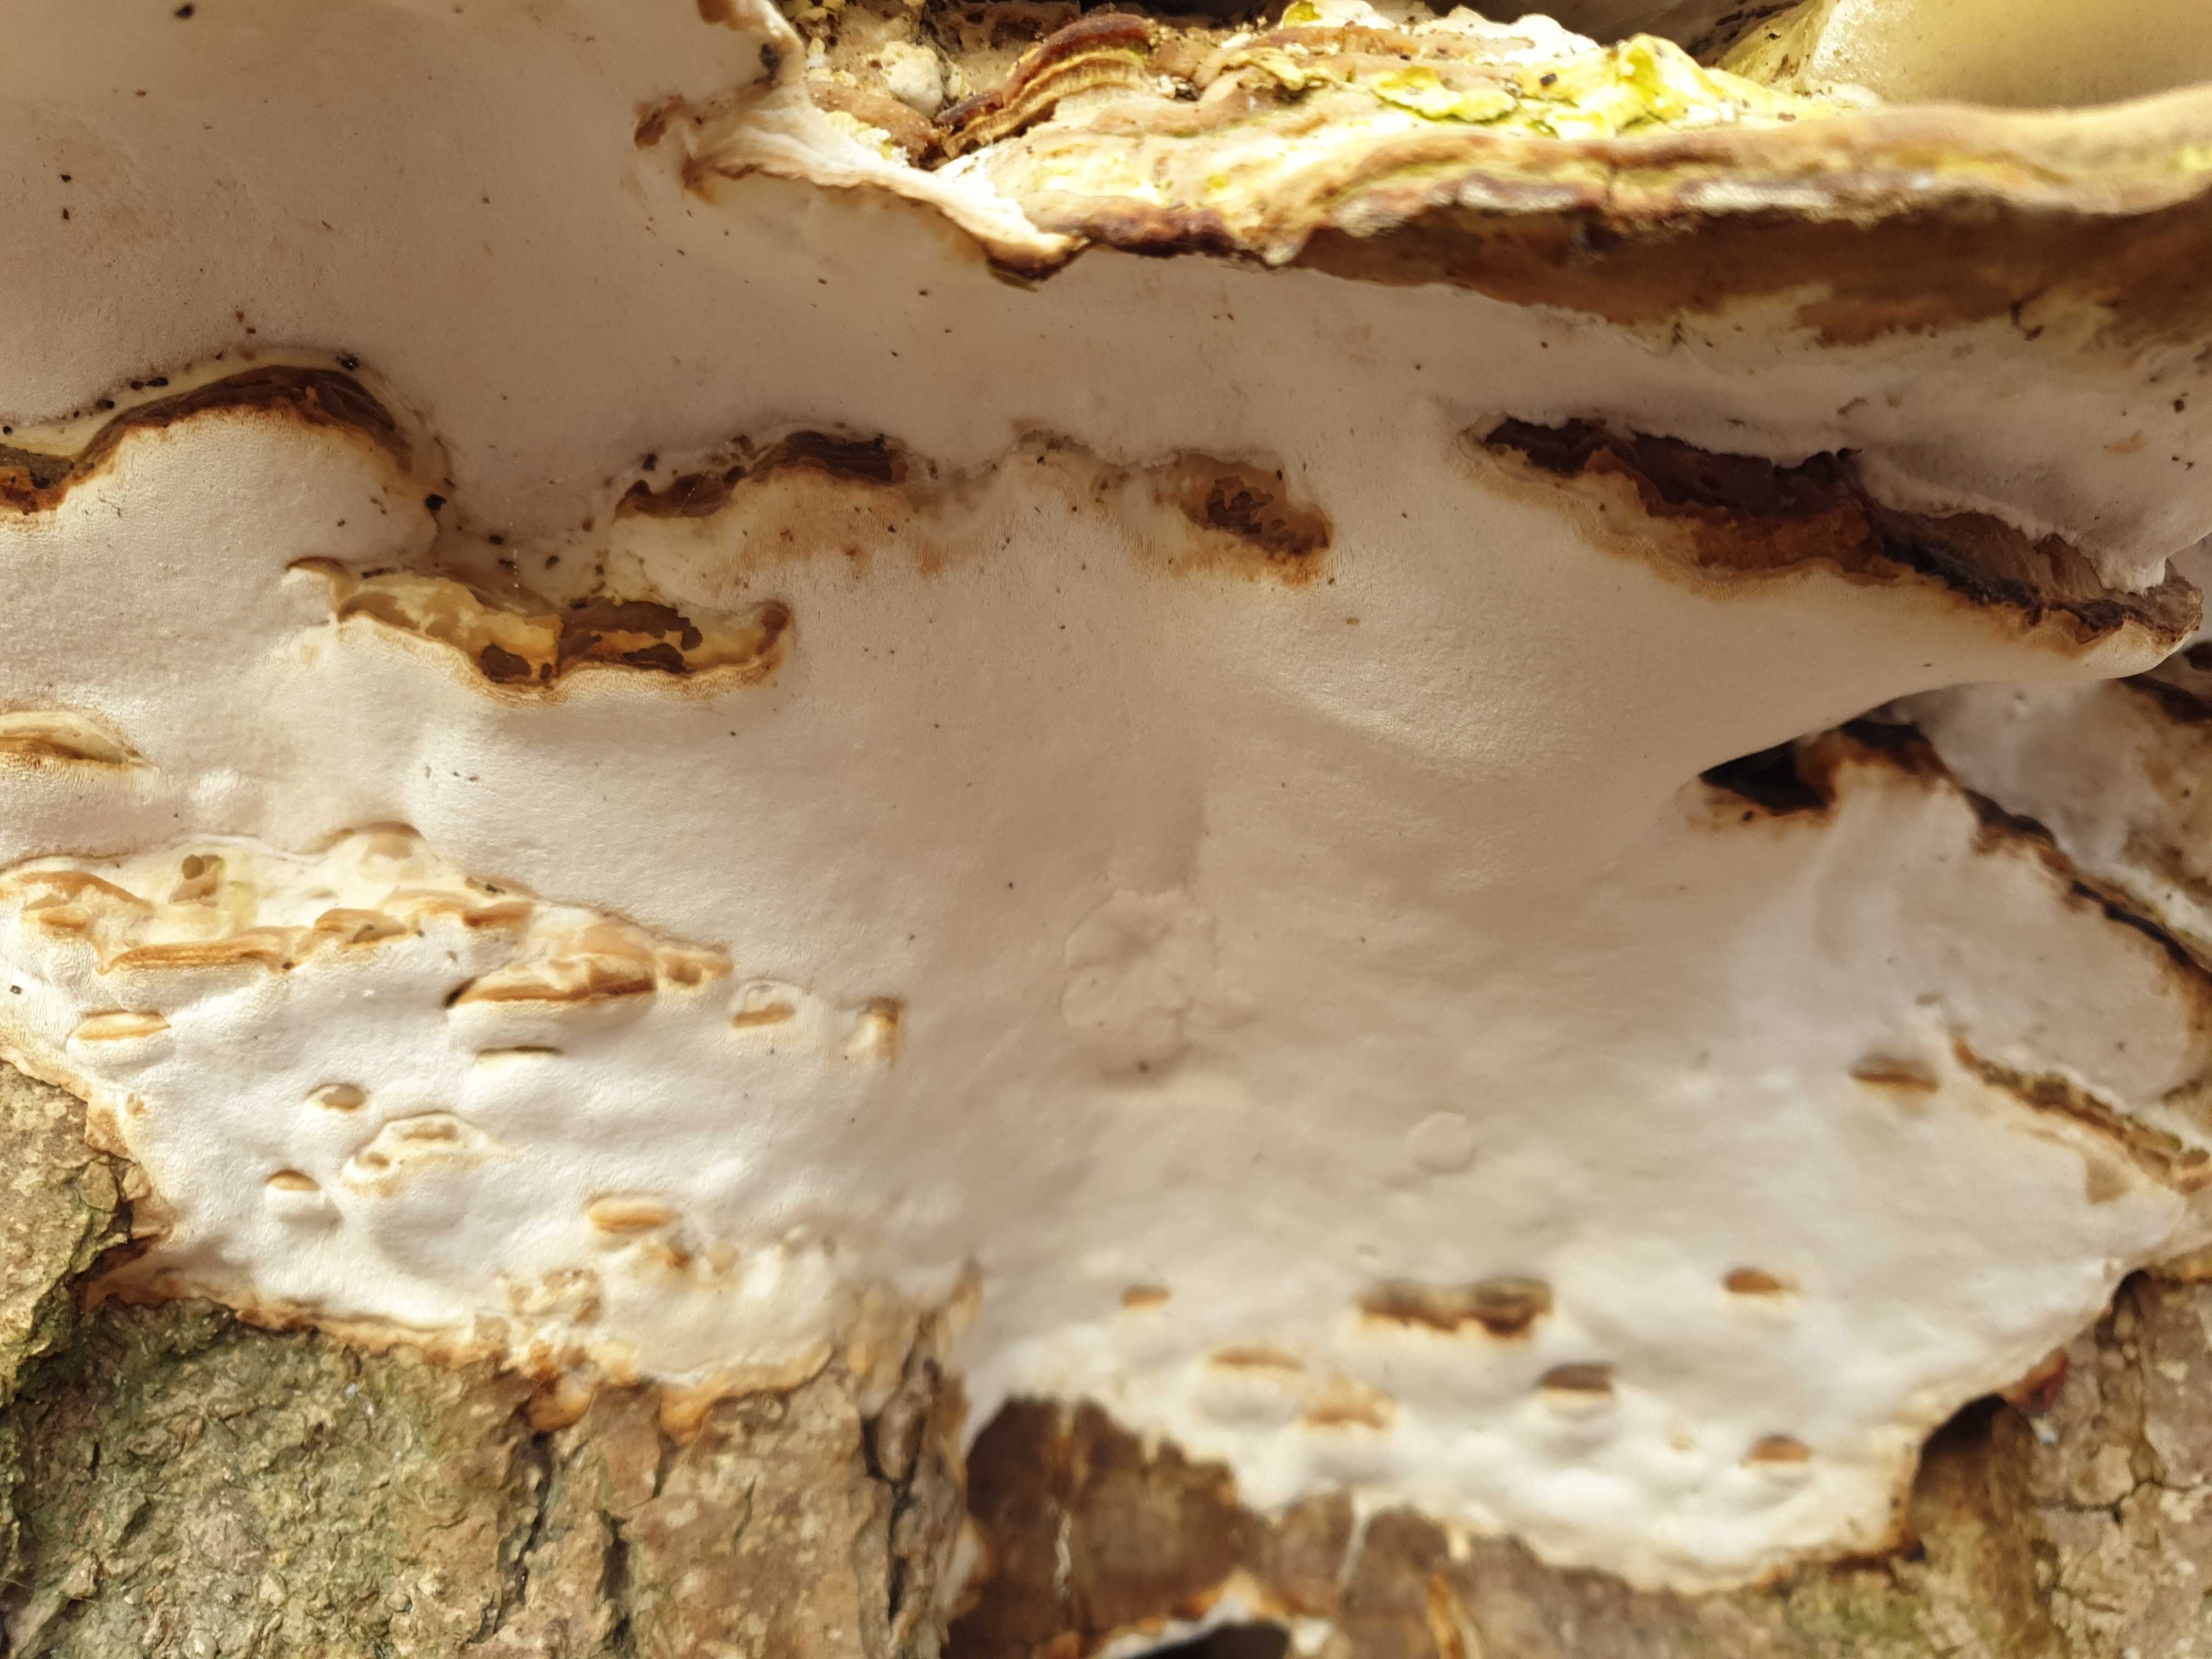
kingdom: Fungi
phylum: Basidiomycota
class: Agaricomycetes
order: Hymenochaetales
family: Oxyporaceae
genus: Oxyporus
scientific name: Oxyporus populinus
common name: sammenvokset trylleporesvamp
